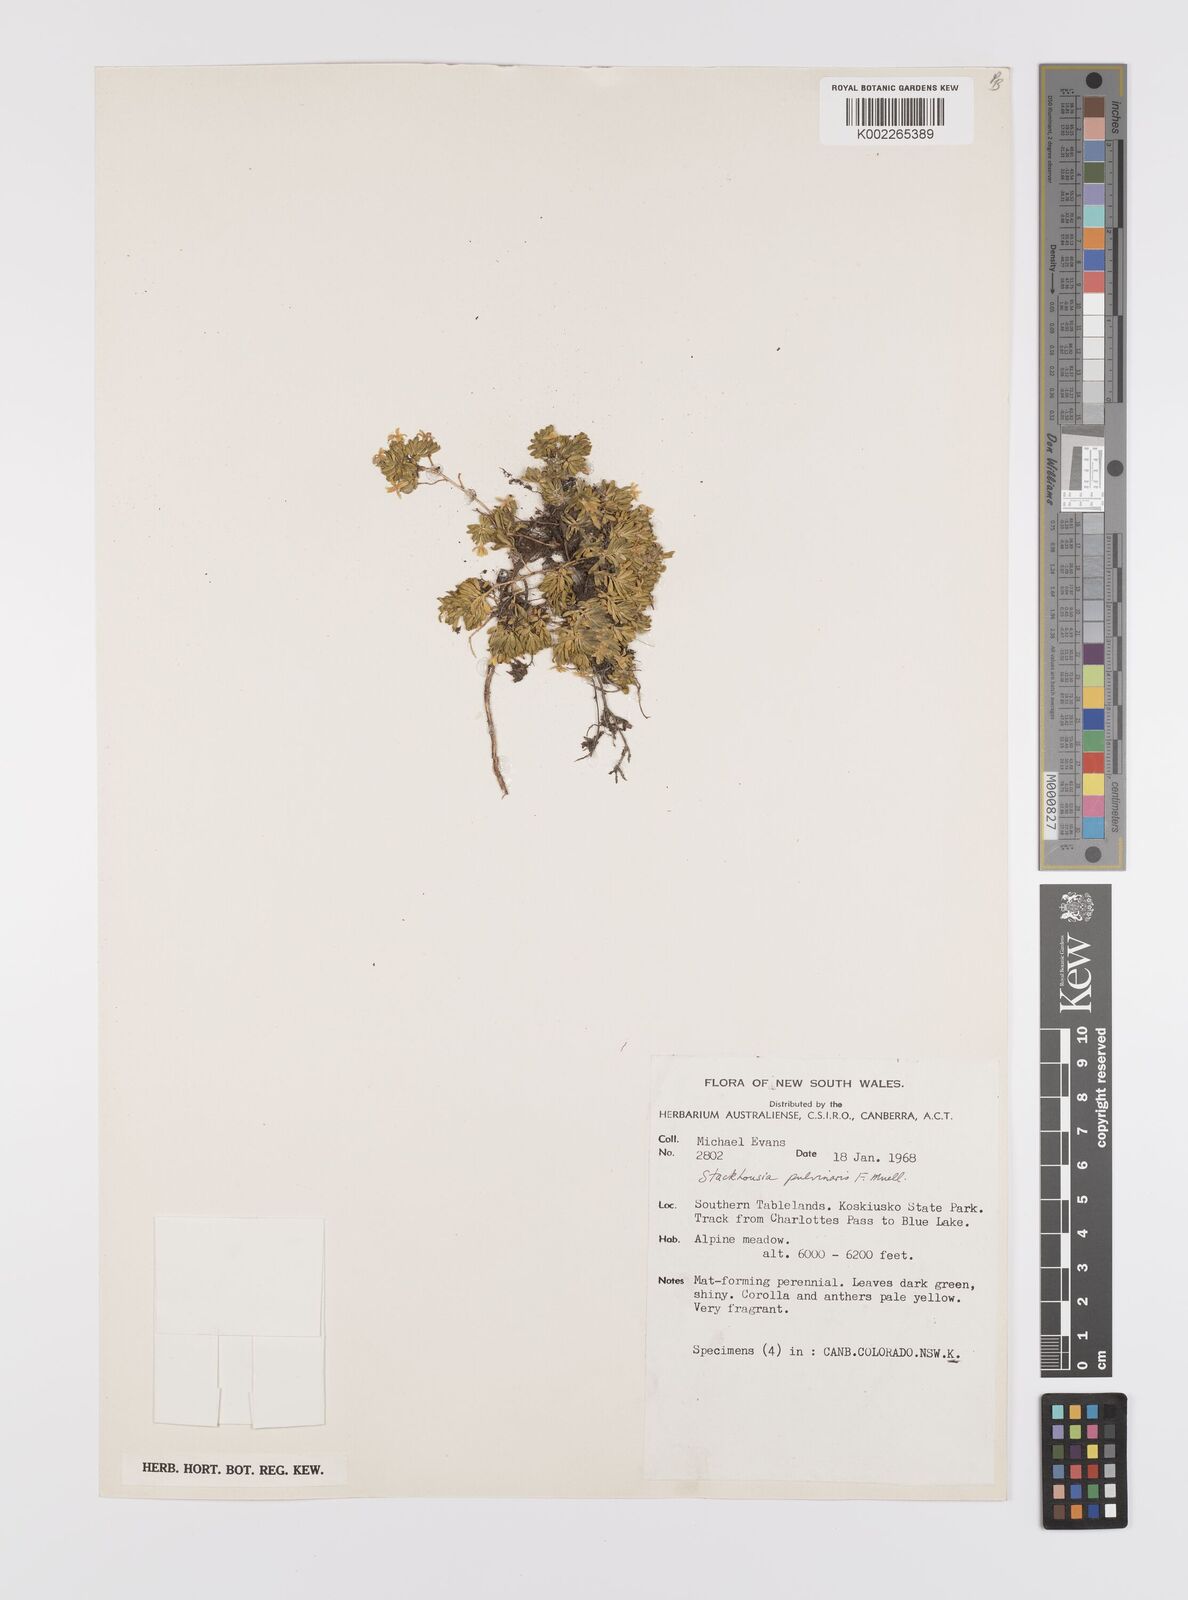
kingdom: Plantae
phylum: Tracheophyta
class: Magnoliopsida
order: Celastrales
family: Celastraceae
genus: Stackhousia
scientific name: Stackhousia pulvinaris
